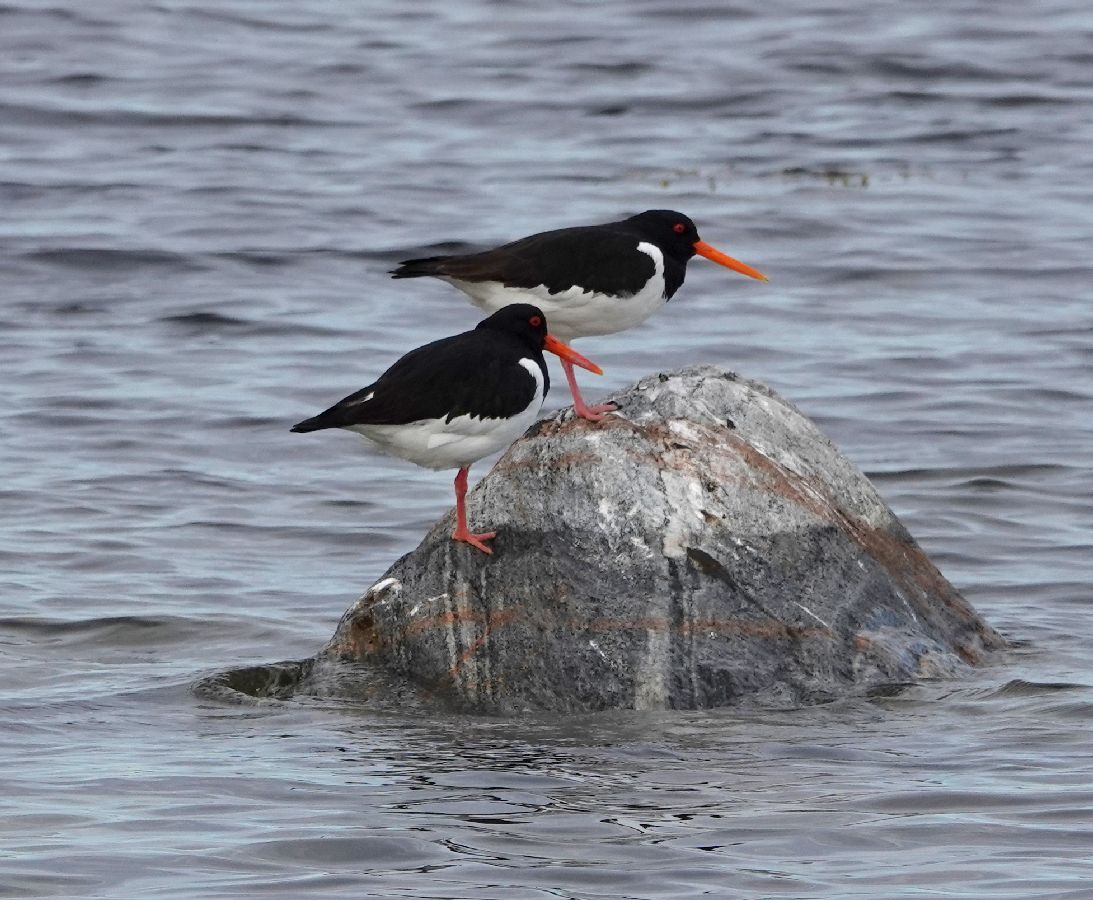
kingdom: Animalia
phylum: Chordata
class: Aves
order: Charadriiformes
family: Haematopodidae
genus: Haematopus
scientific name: Haematopus ostralegus
